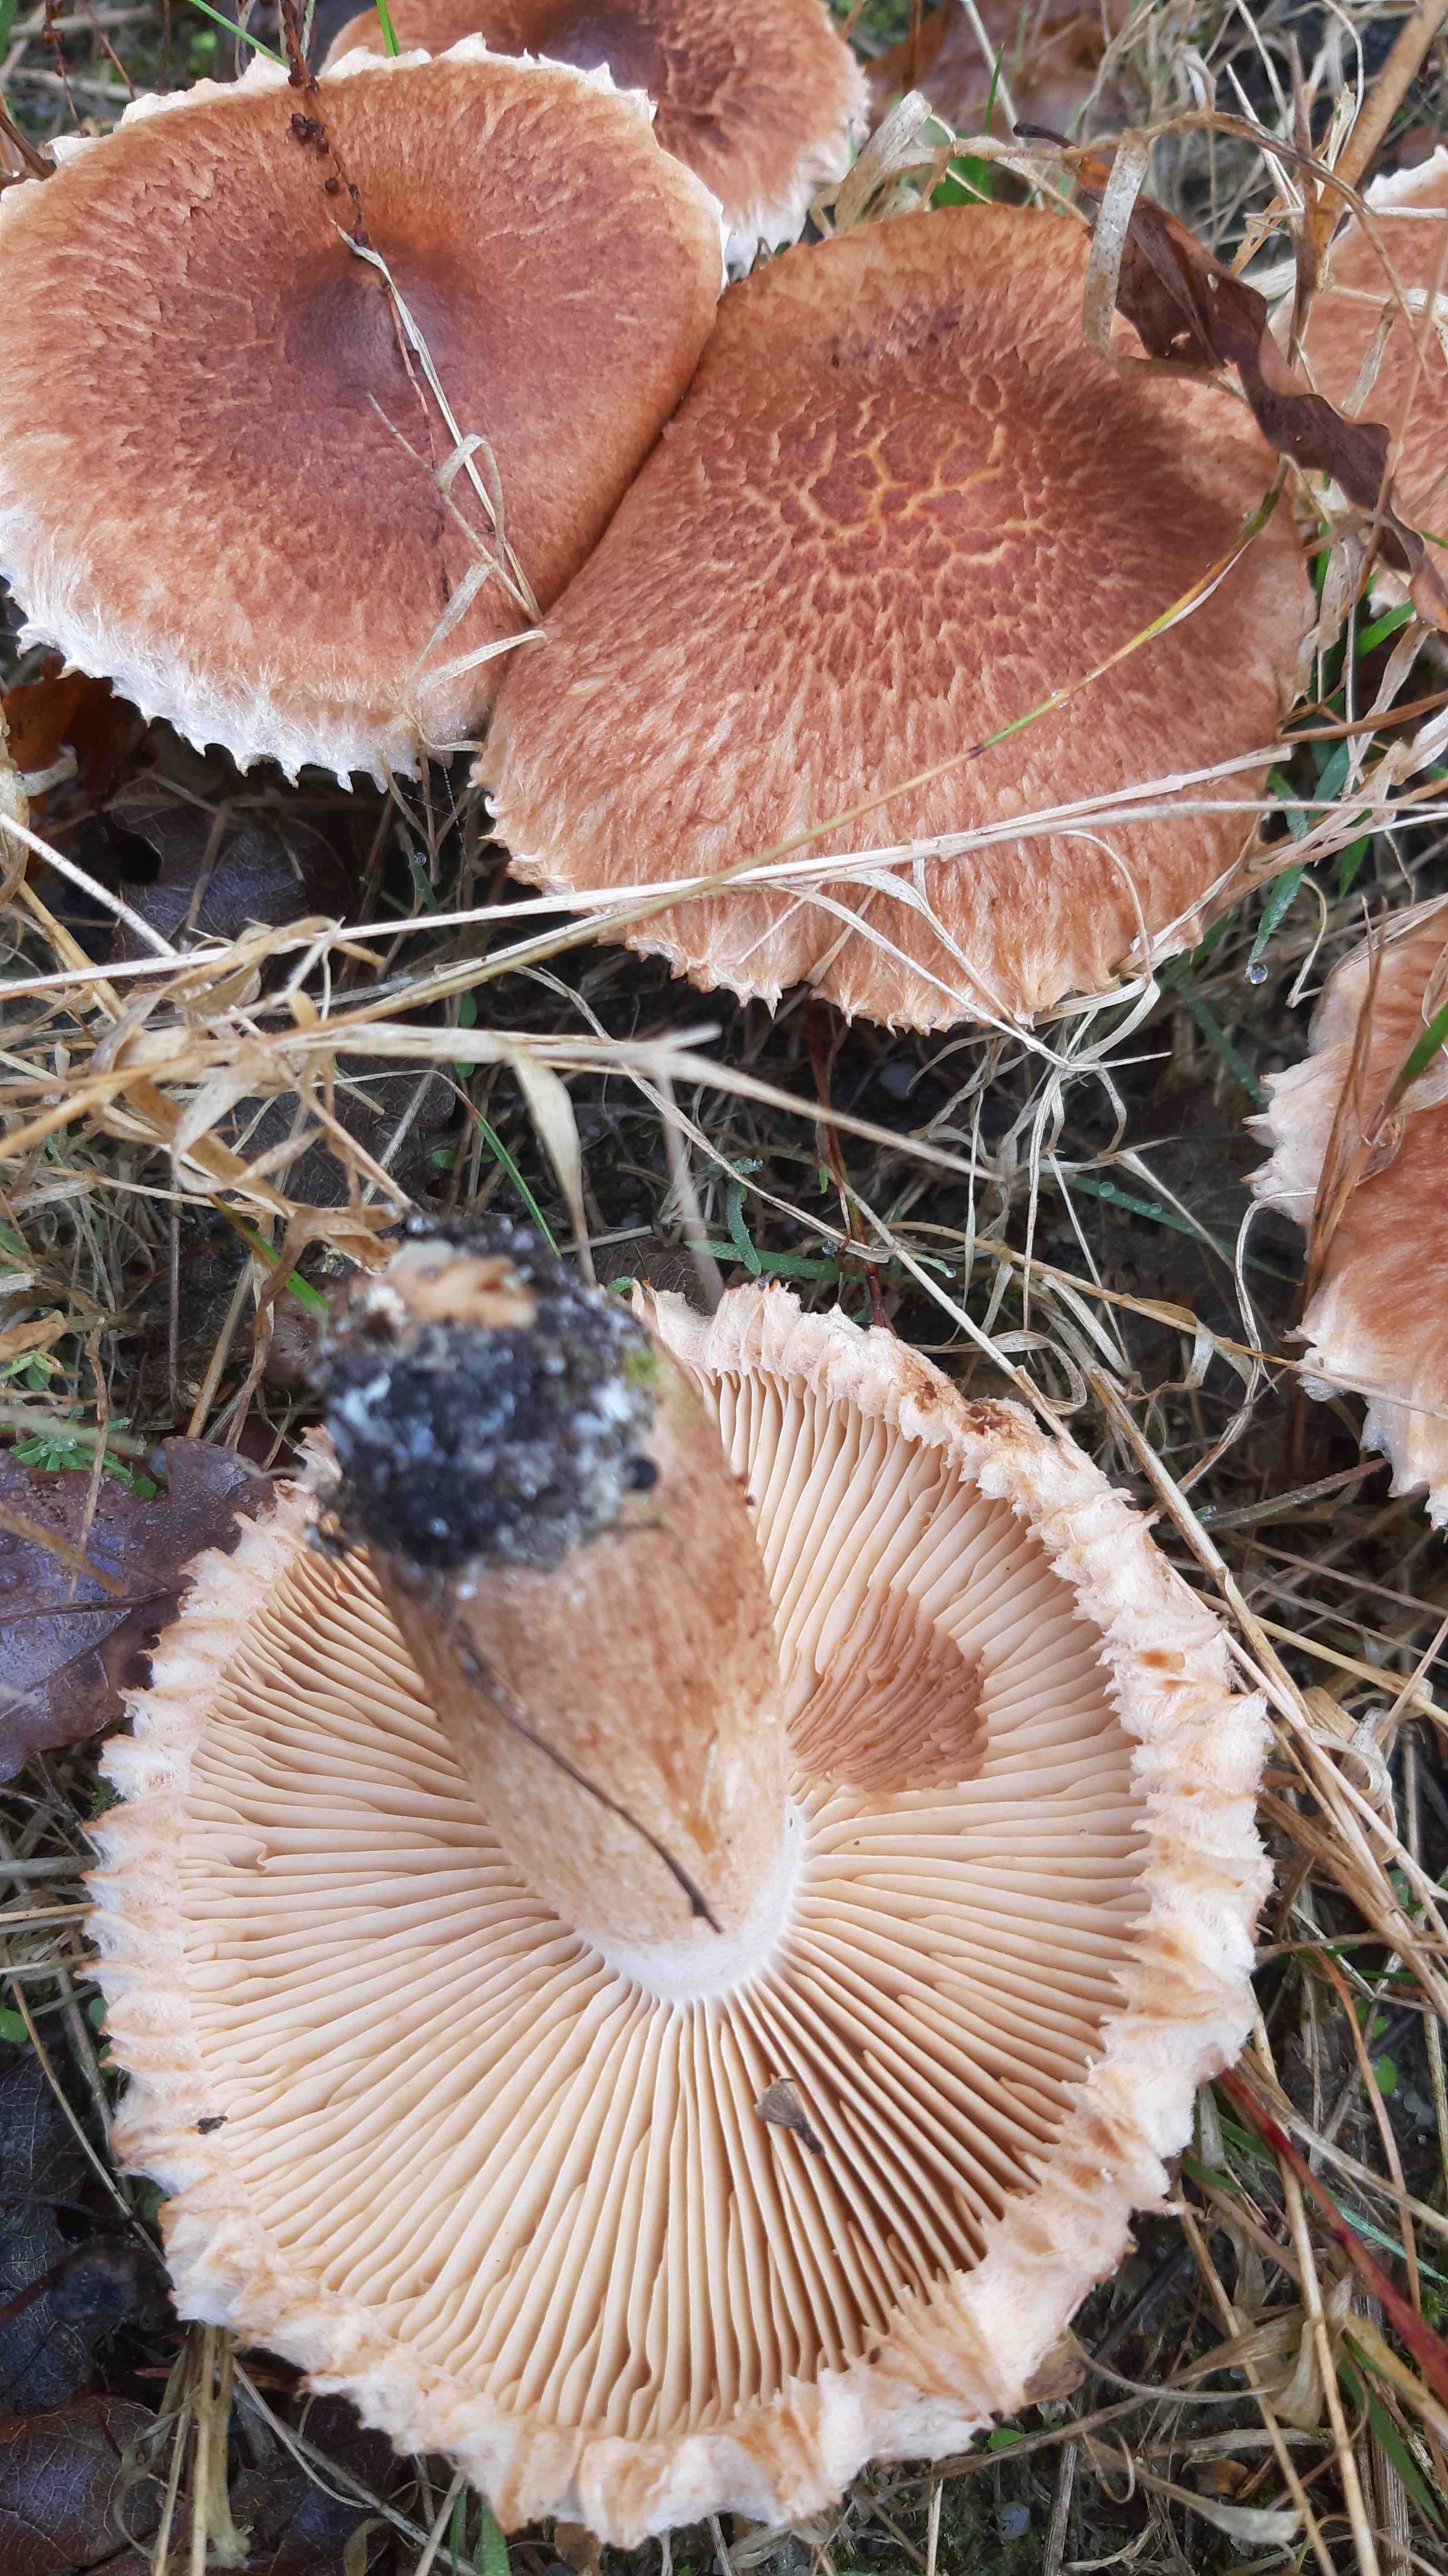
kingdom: Fungi
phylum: Basidiomycota
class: Agaricomycetes
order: Agaricales
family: Tricholomataceae
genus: Tricholoma
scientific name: Tricholoma vaccinum
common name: ko-ridderhat
